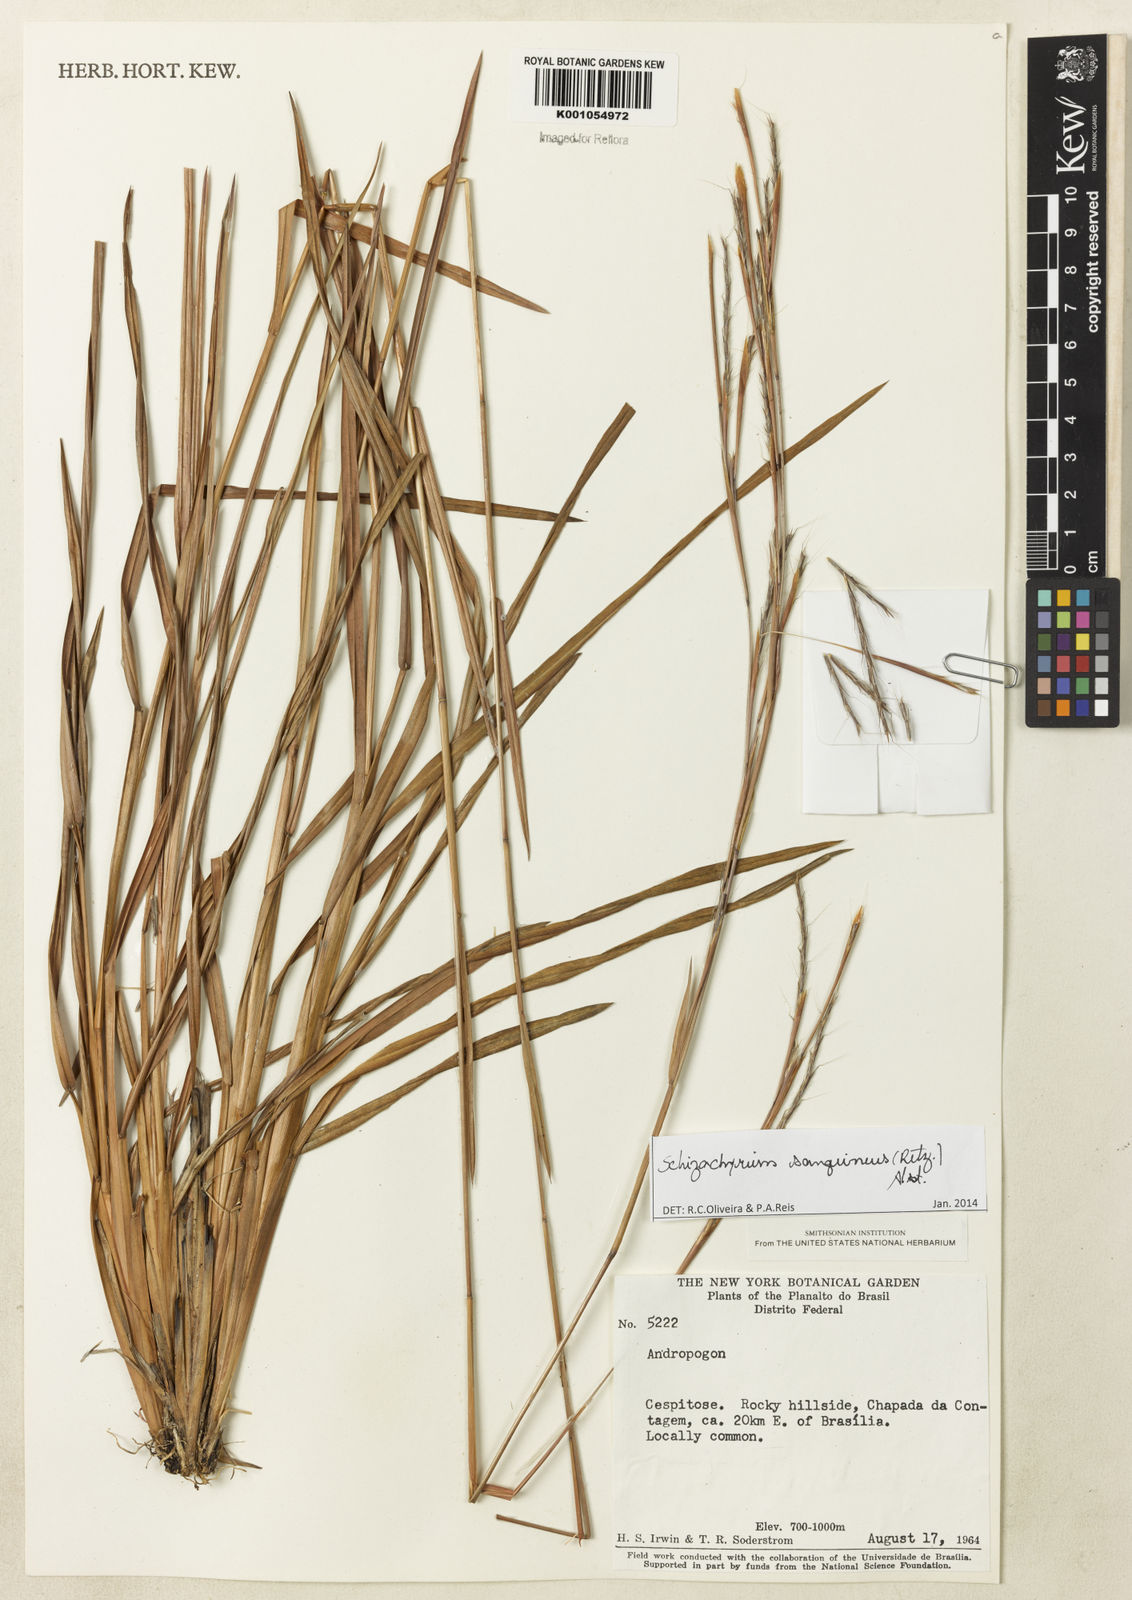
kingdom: Plantae
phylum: Tracheophyta
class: Liliopsida
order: Poales
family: Poaceae
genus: Schizachyrium
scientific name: Schizachyrium sanguineum
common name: Crimson bluestem
